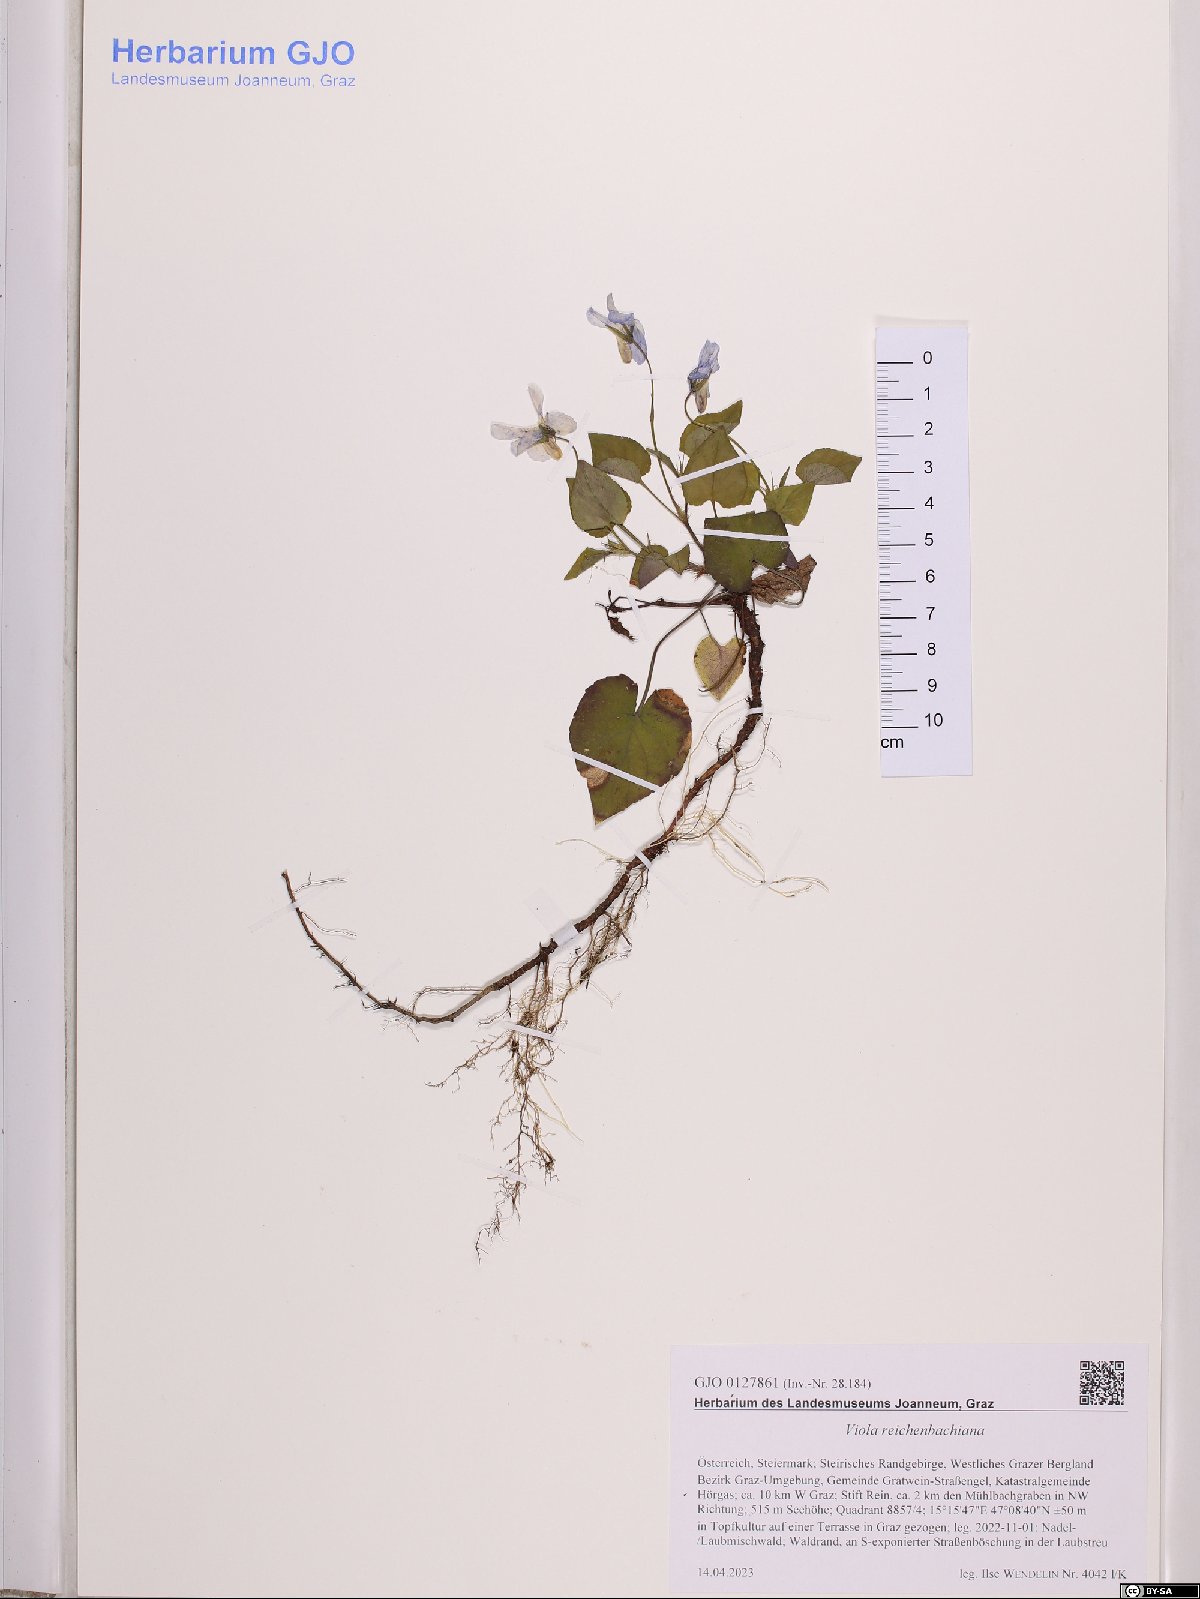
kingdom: Plantae
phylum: Tracheophyta
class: Magnoliopsida
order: Malpighiales
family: Violaceae
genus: Viola
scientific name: Viola reichenbachiana
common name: Early dog-violet
